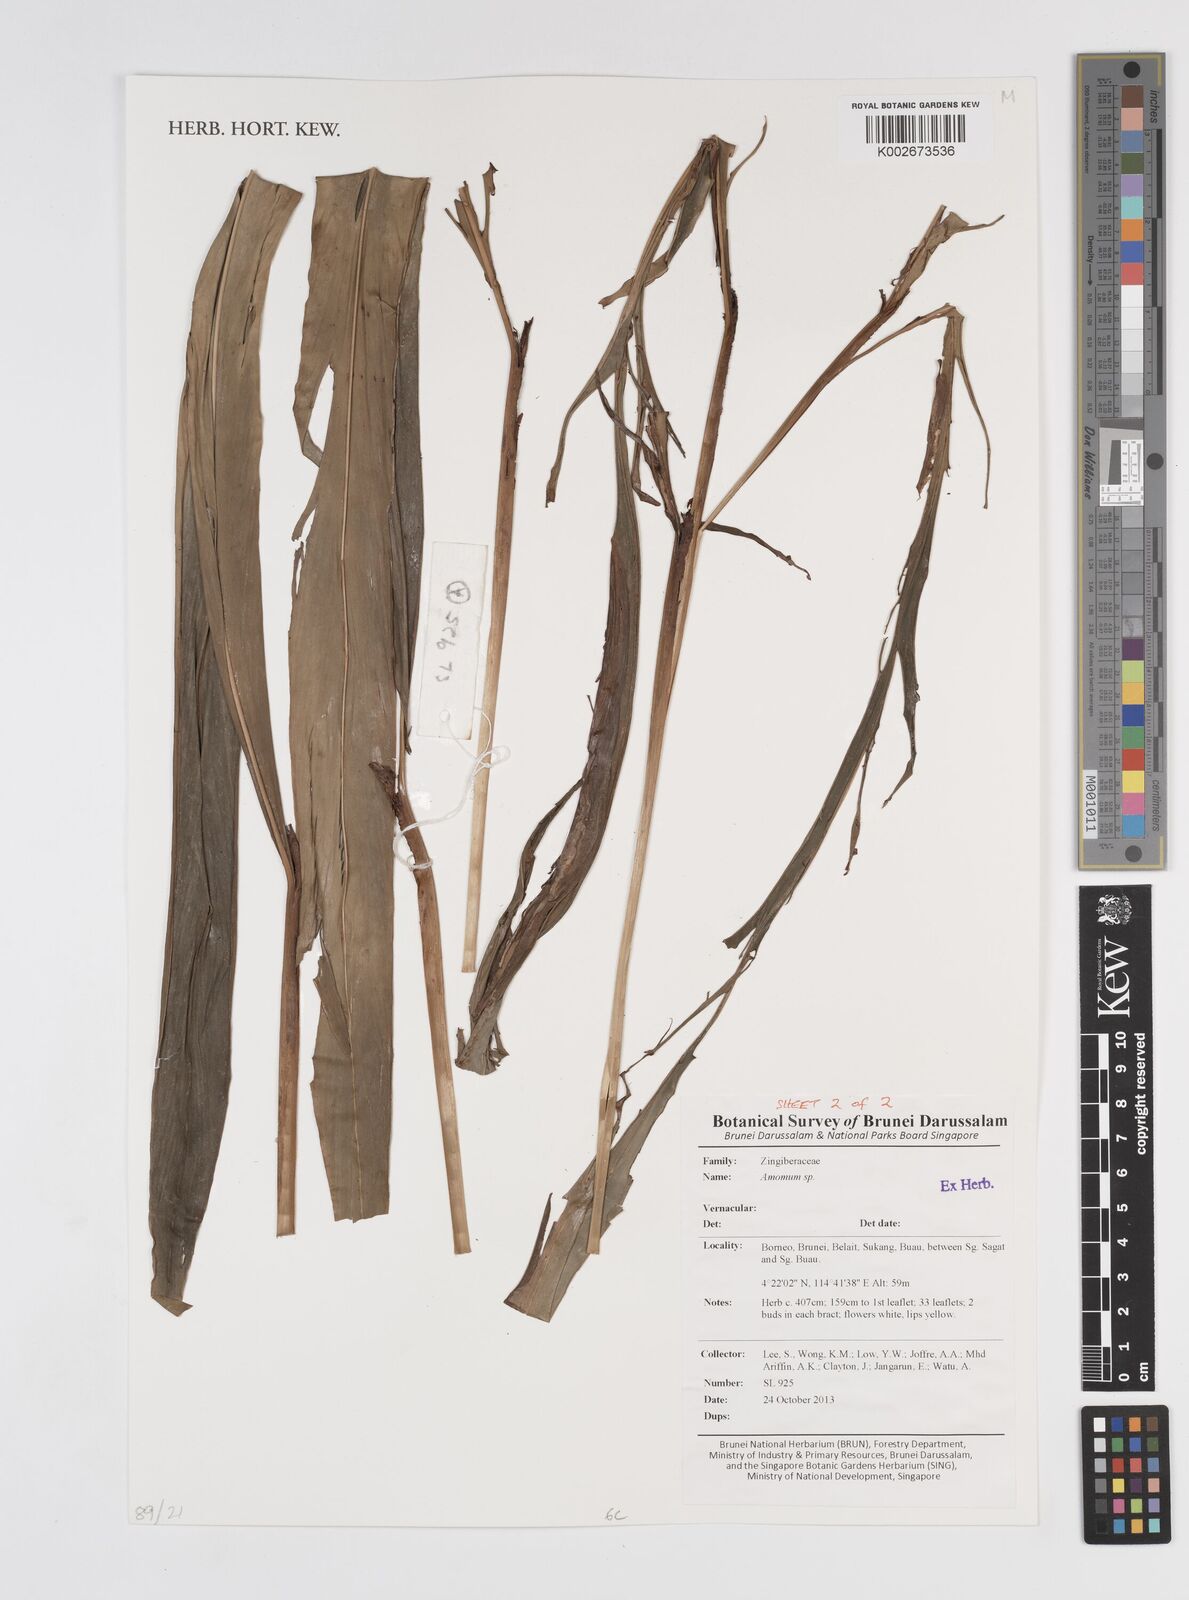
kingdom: Plantae
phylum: Tracheophyta
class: Liliopsida
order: Zingiberales
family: Zingiberaceae
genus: Amomum
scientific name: Amomum
